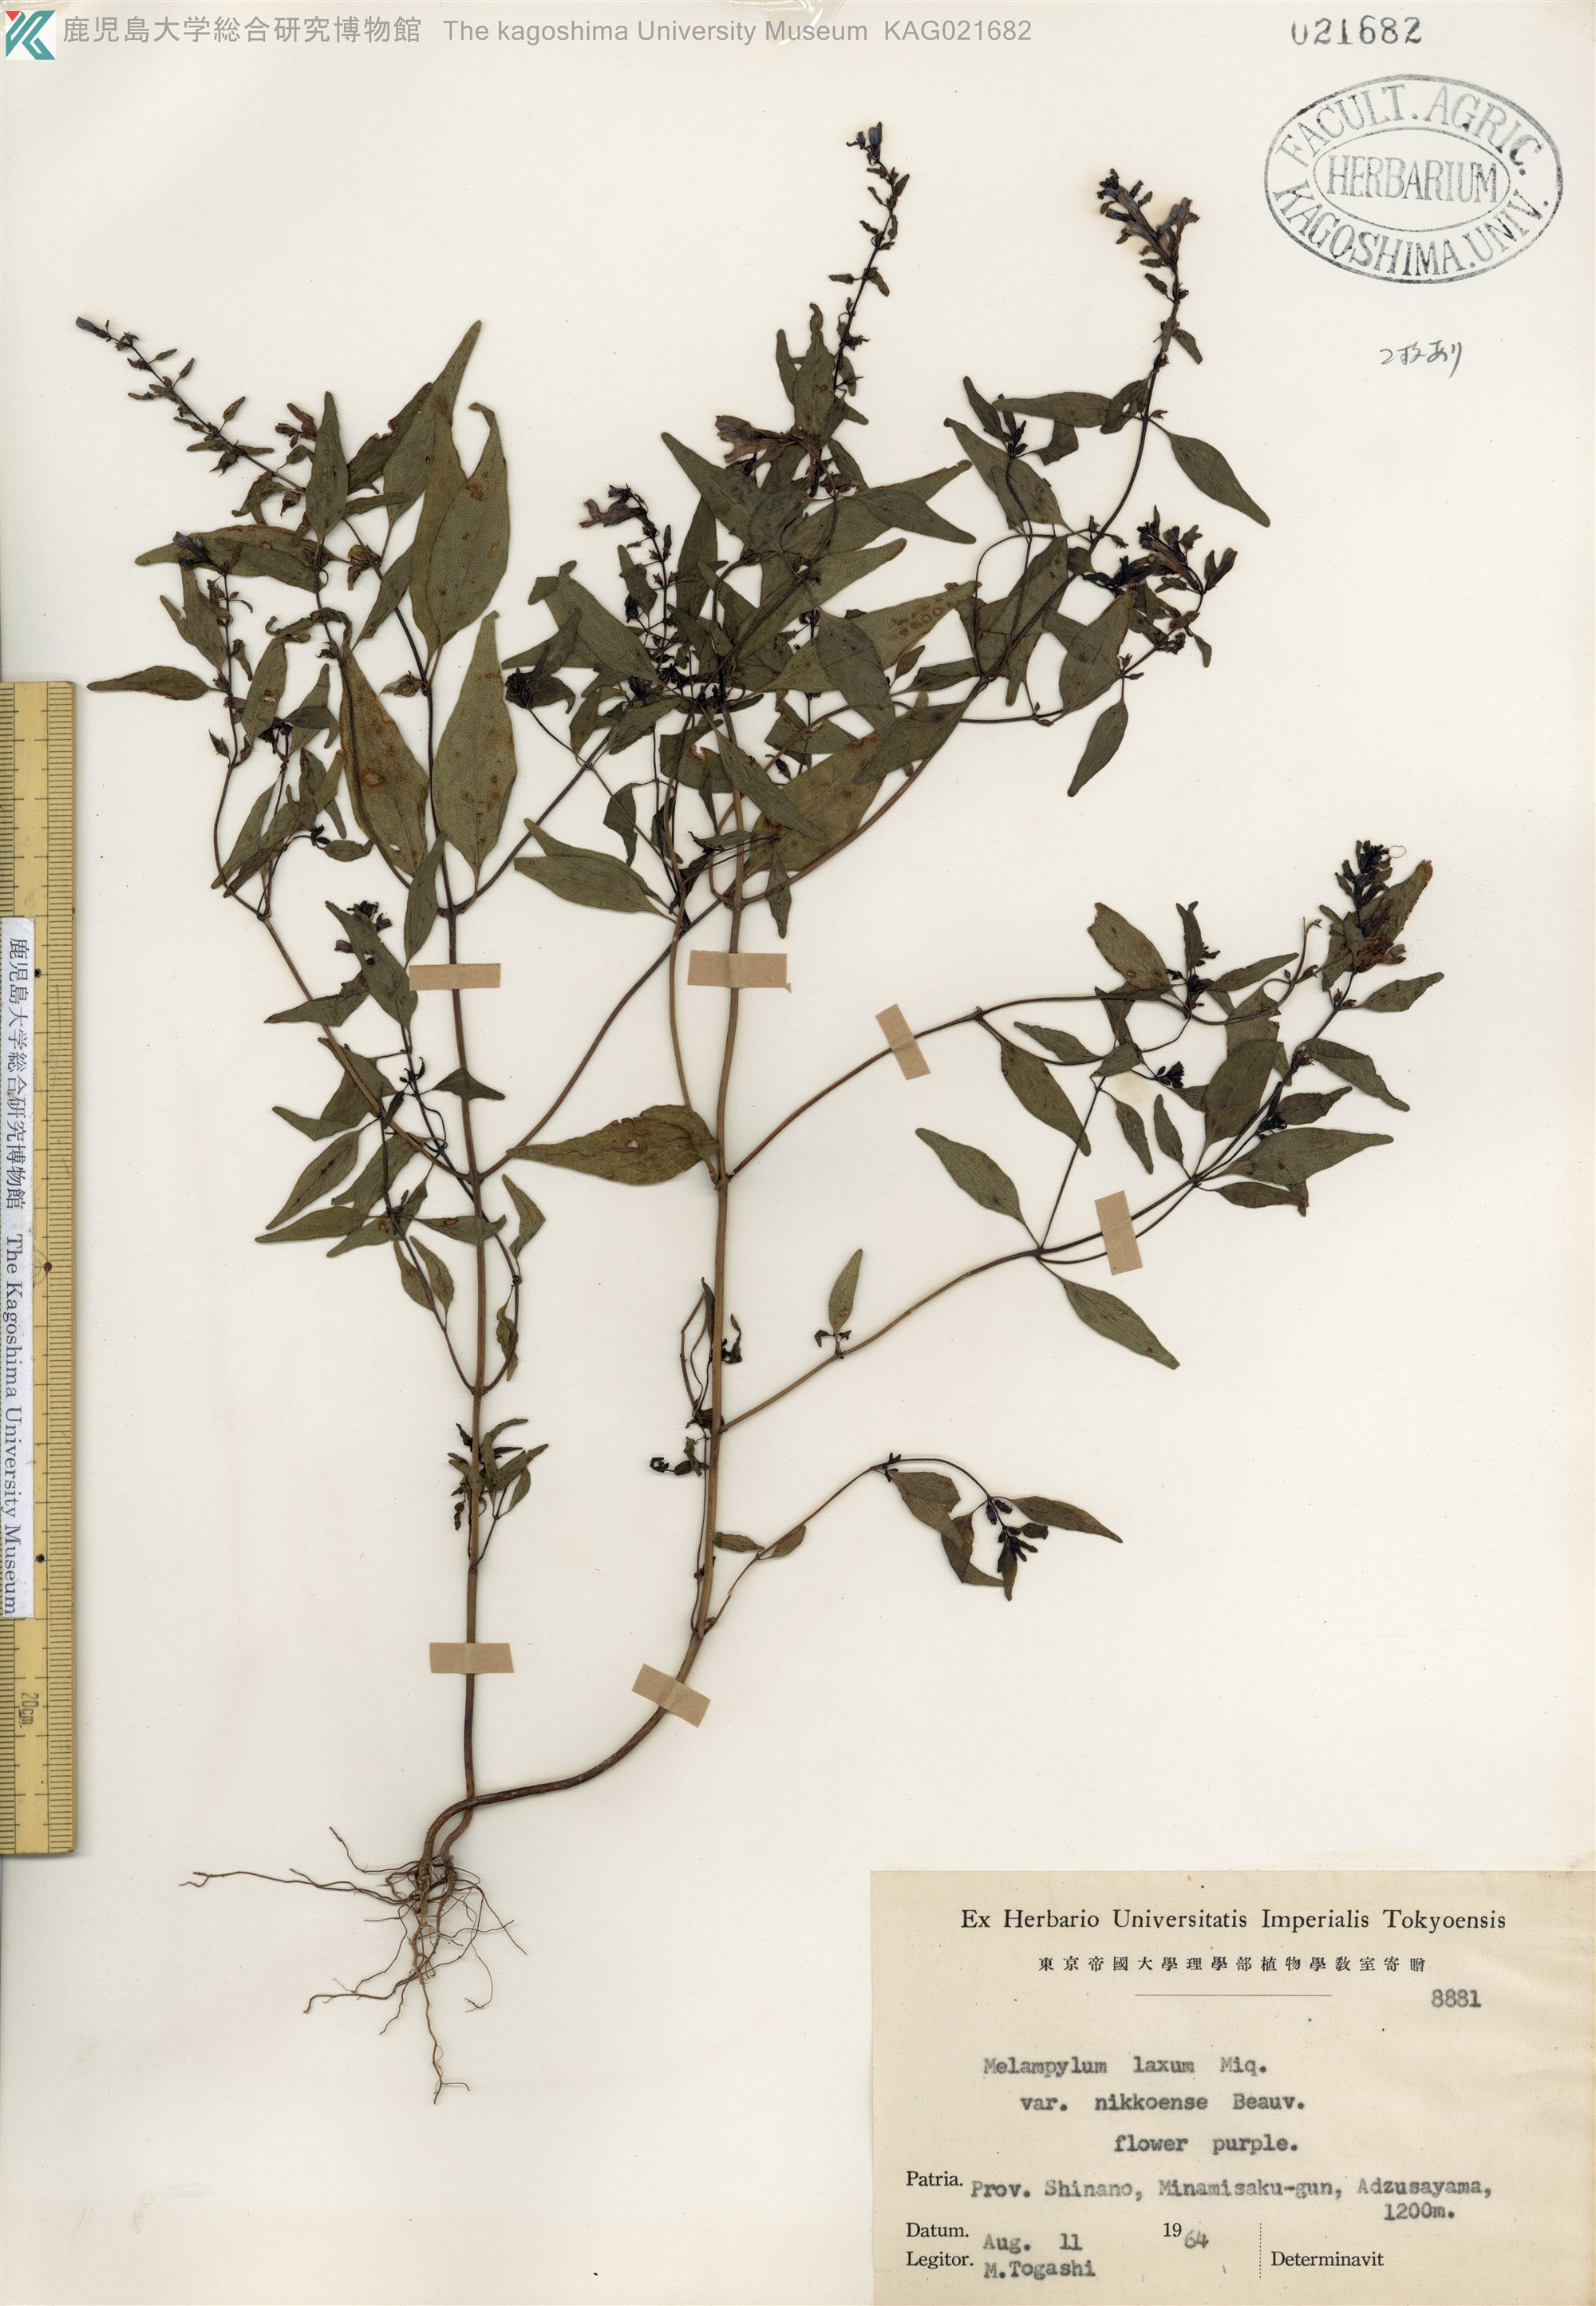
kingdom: Plantae
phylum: Tracheophyta
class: Magnoliopsida
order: Lamiales
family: Orobanchaceae
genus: Melampyrum
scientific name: Melampyrum laxum
